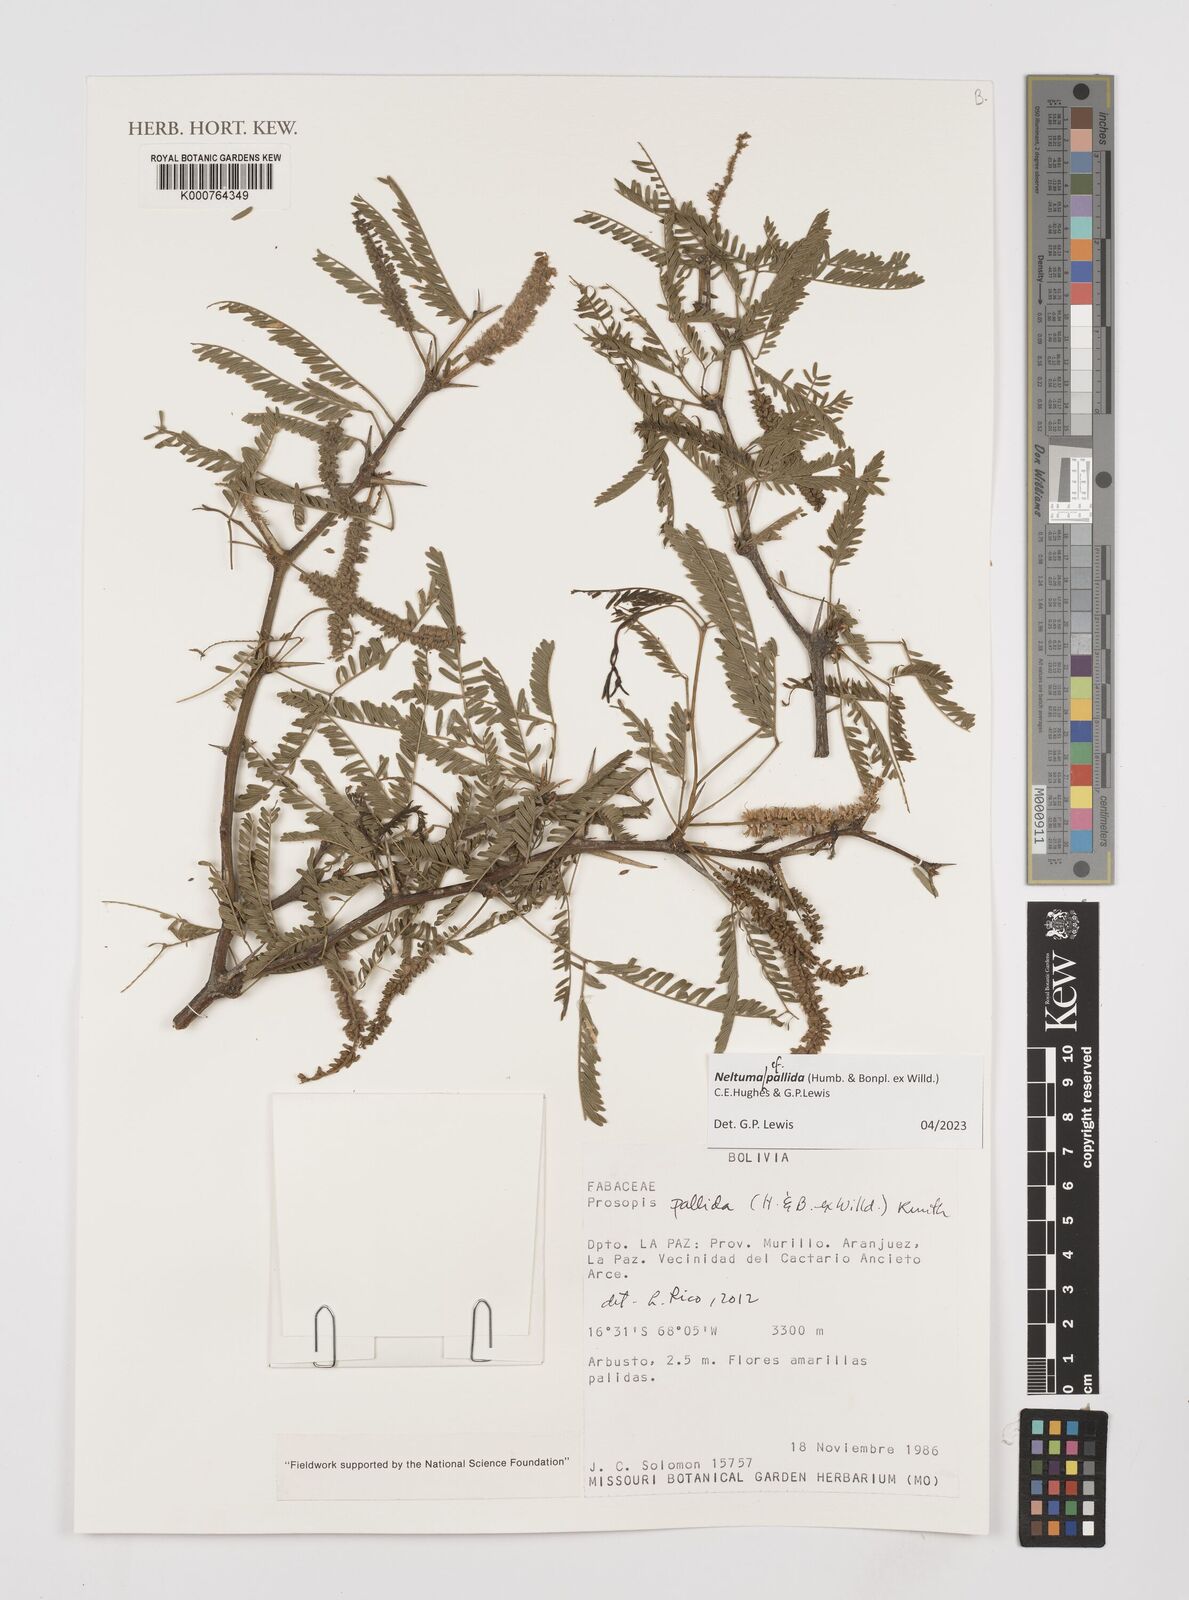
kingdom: Plantae
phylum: Tracheophyta
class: Magnoliopsida
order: Fabales
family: Fabaceae
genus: Prosopis
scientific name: Prosopis pallida
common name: Mesquite
